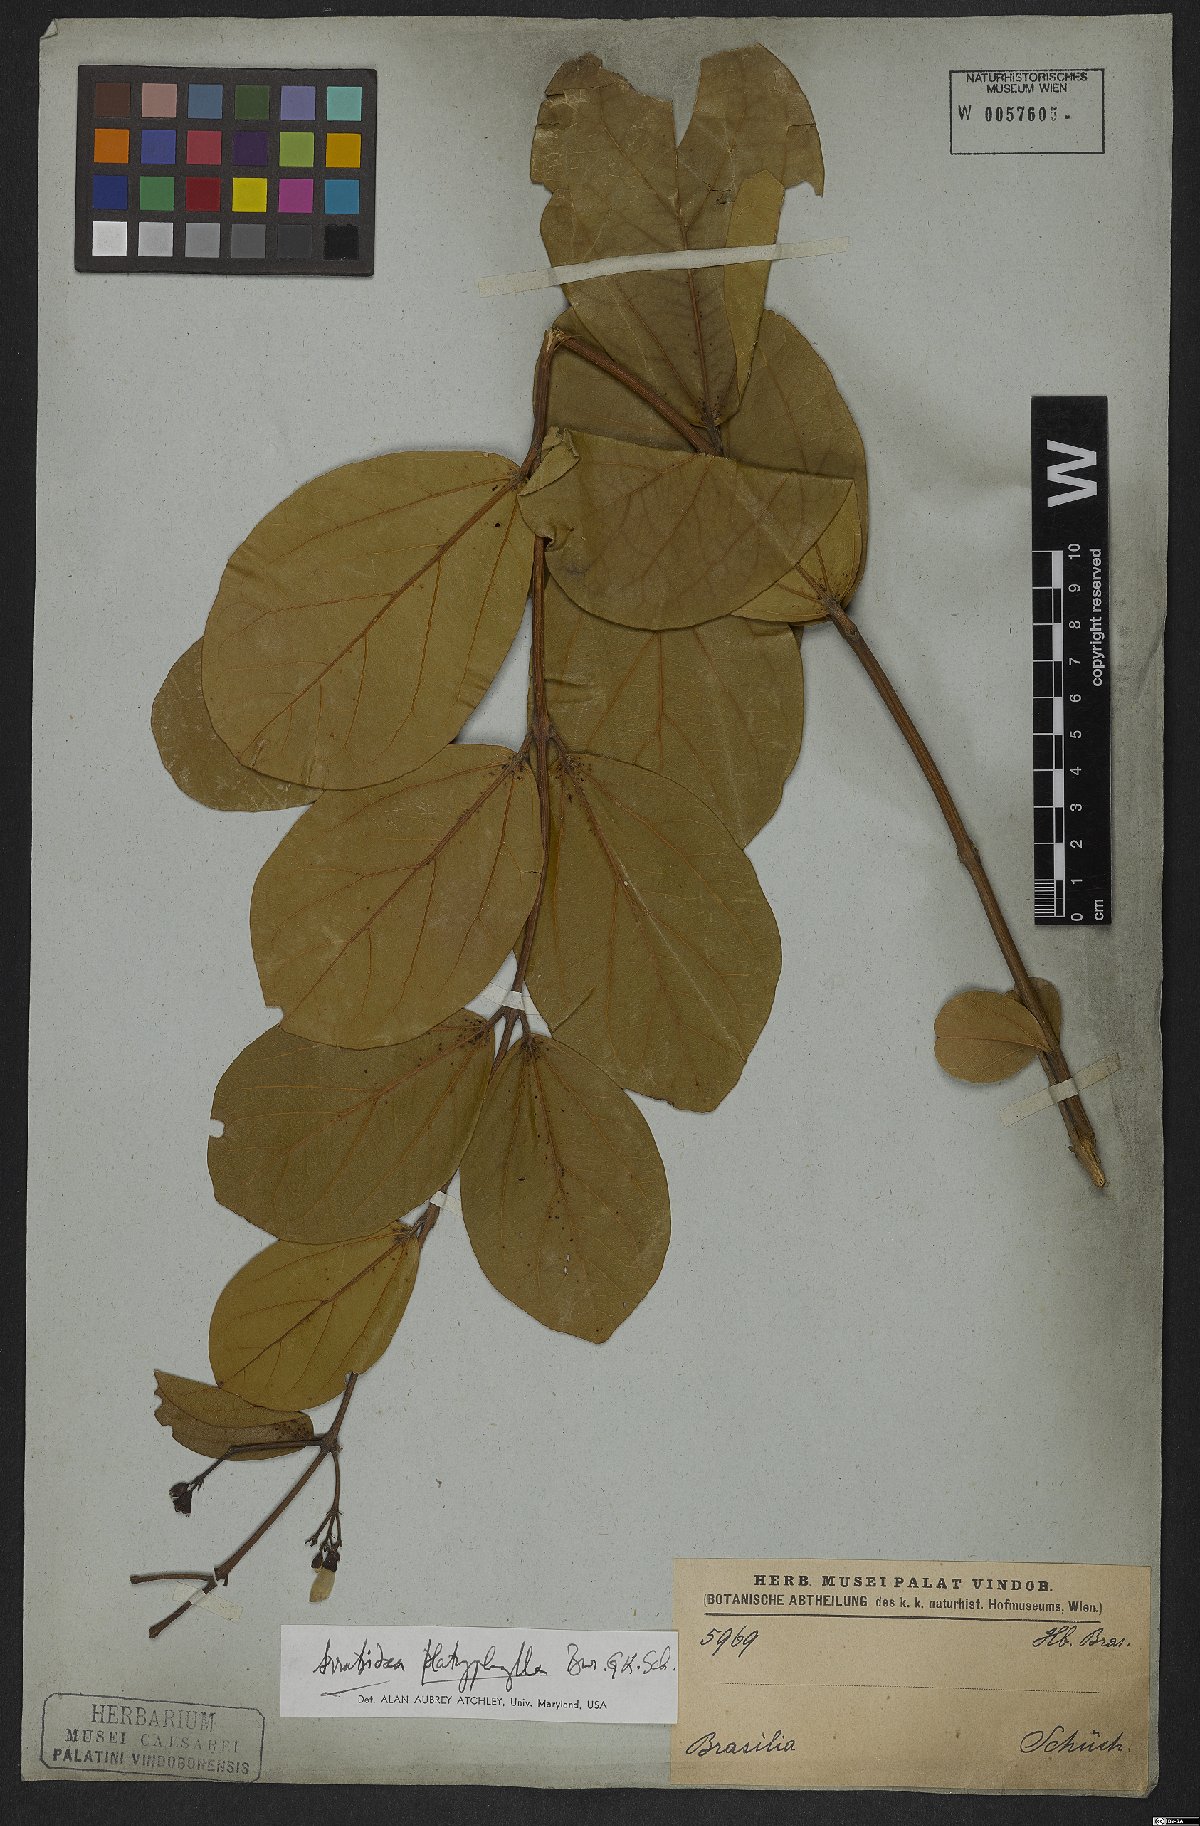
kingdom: Plantae
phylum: Tracheophyta
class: Magnoliopsida
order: Lamiales
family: Bignoniaceae
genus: Xylophragma
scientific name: Xylophragma platyphyllum
